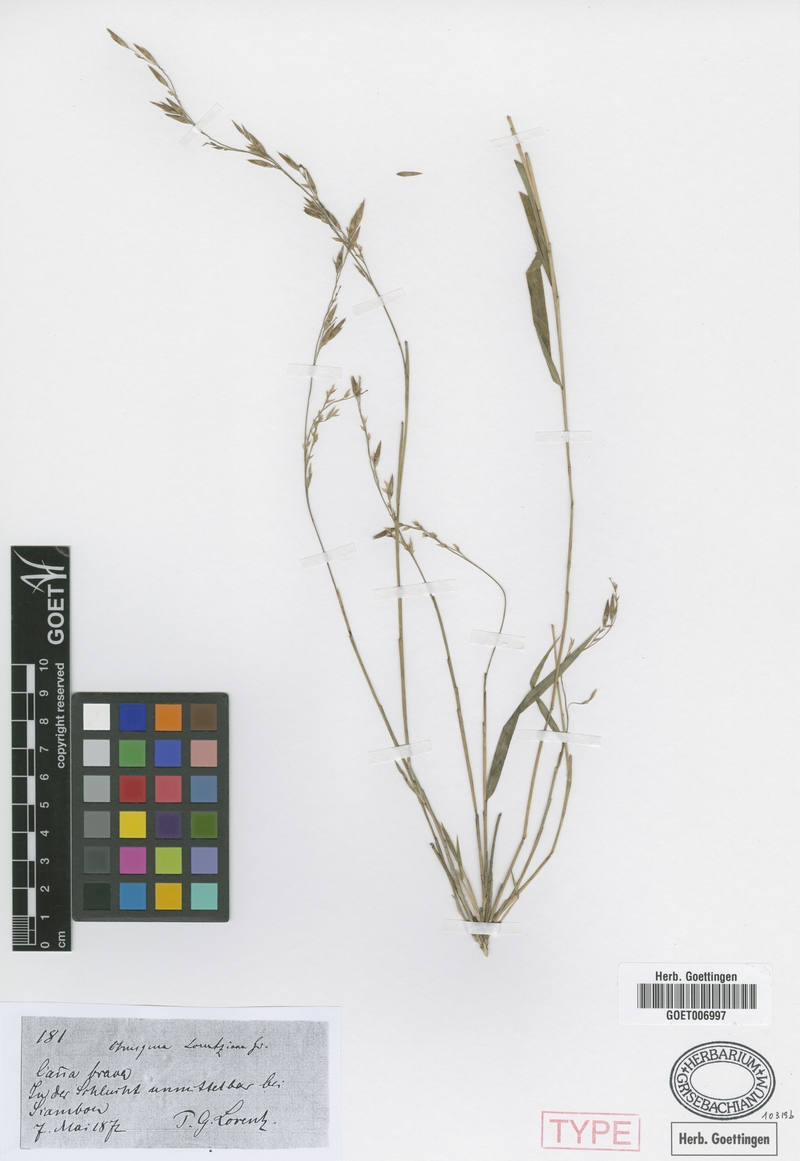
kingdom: Plantae
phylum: Tracheophyta
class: Liliopsida
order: Poales
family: Poaceae
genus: Chusquea
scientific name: Chusquea lorentziana
